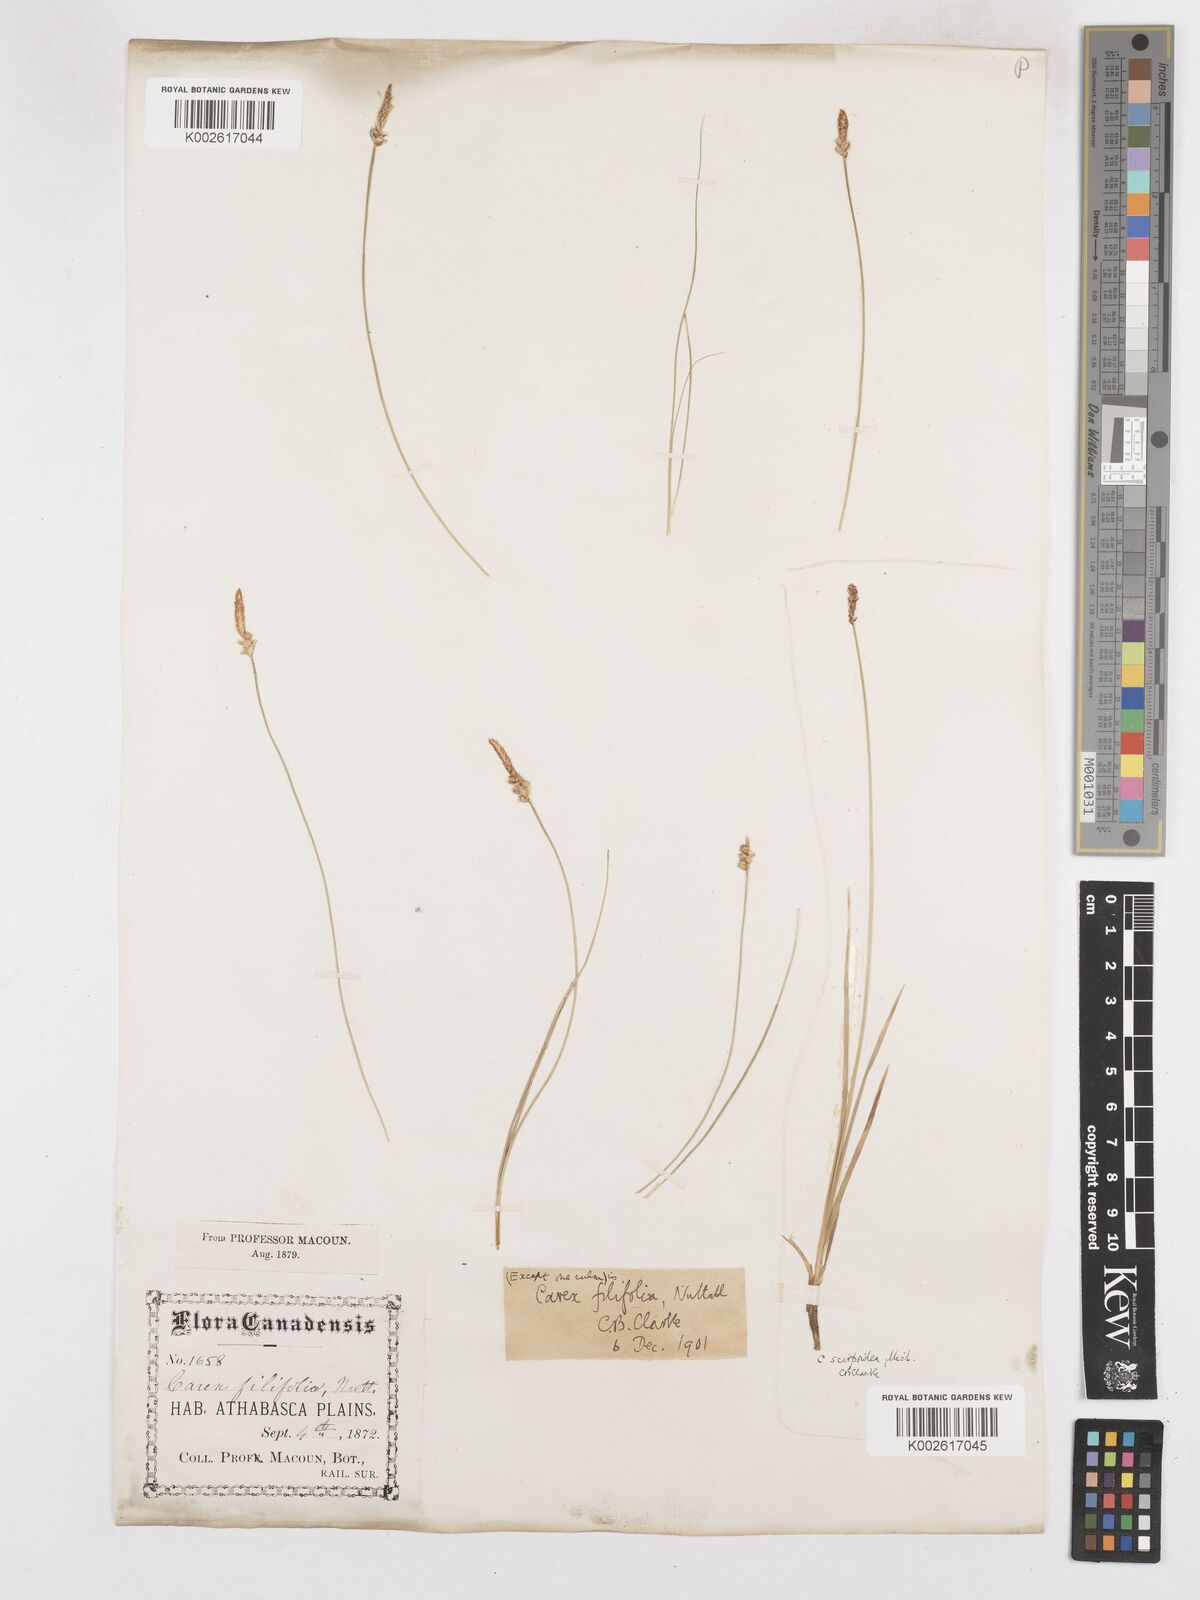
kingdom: Plantae
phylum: Tracheophyta
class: Liliopsida
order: Poales
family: Cyperaceae
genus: Carex
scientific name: Carex filifolia
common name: Threadleaf sedge
